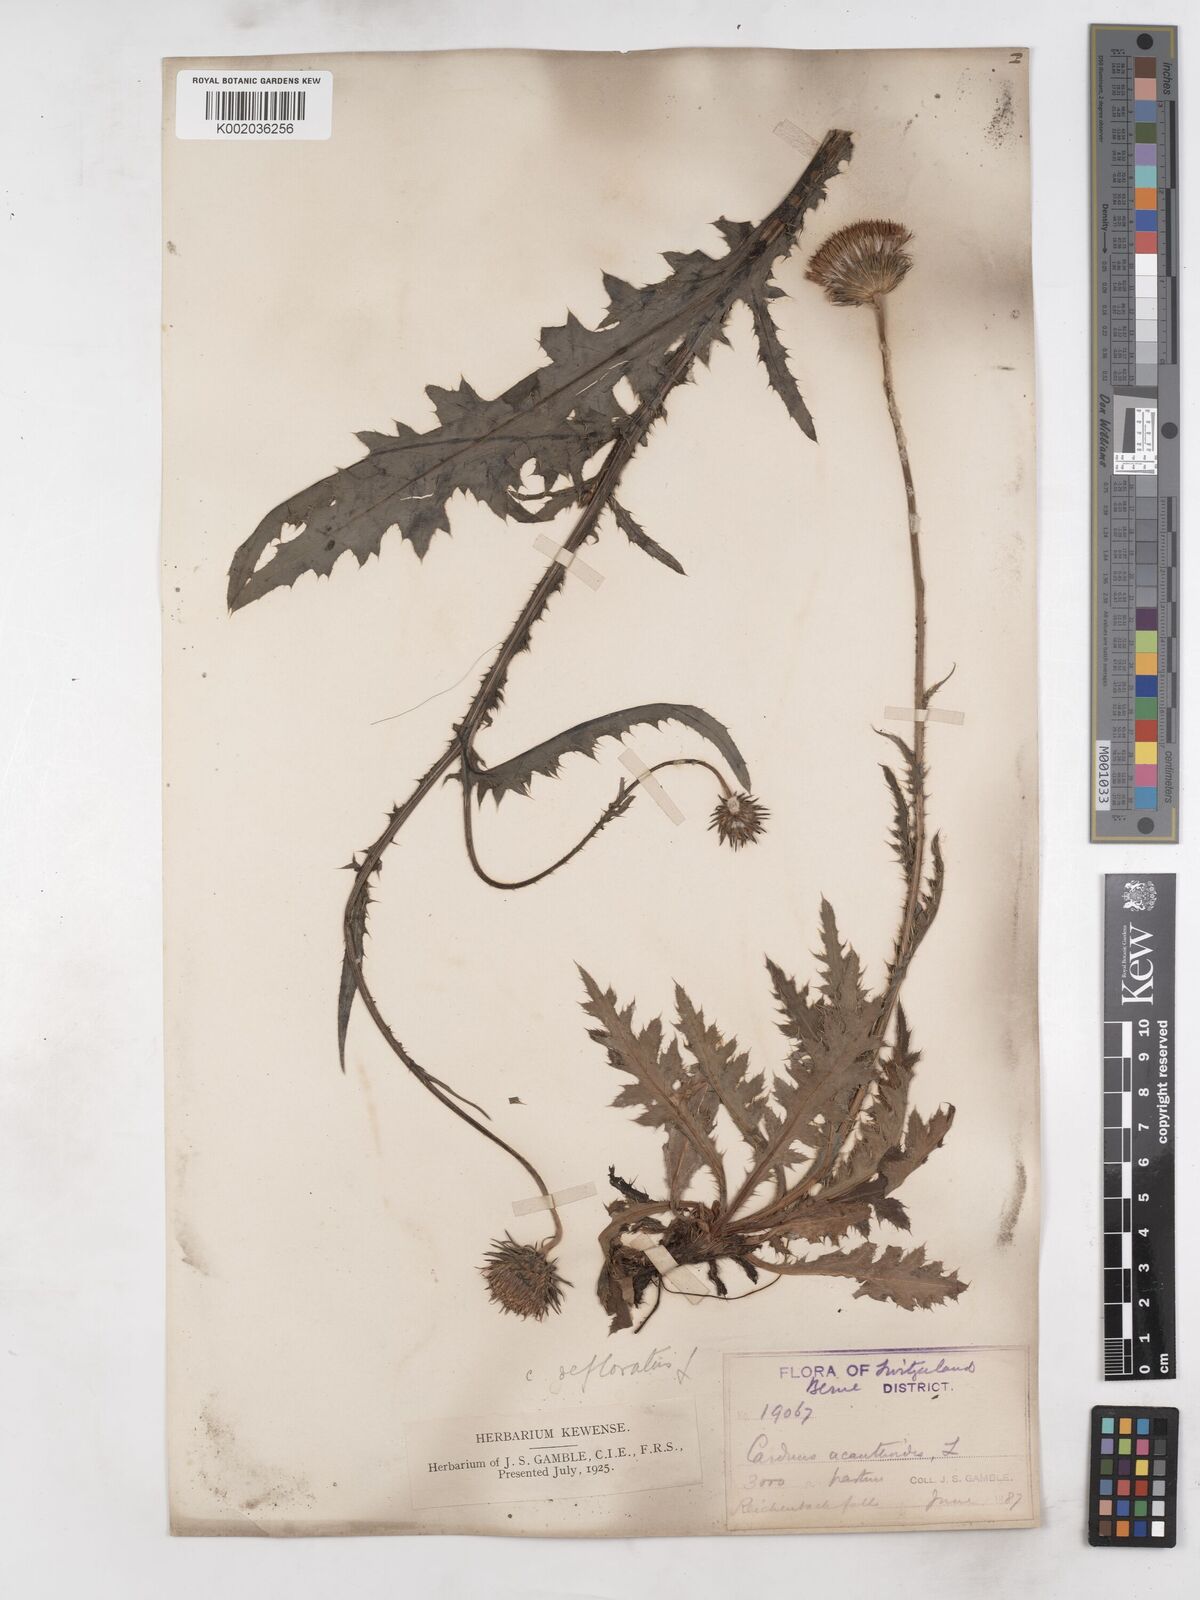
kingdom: Plantae
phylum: Tracheophyta
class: Magnoliopsida
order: Asterales
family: Asteraceae
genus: Carduus
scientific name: Carduus defloratus
